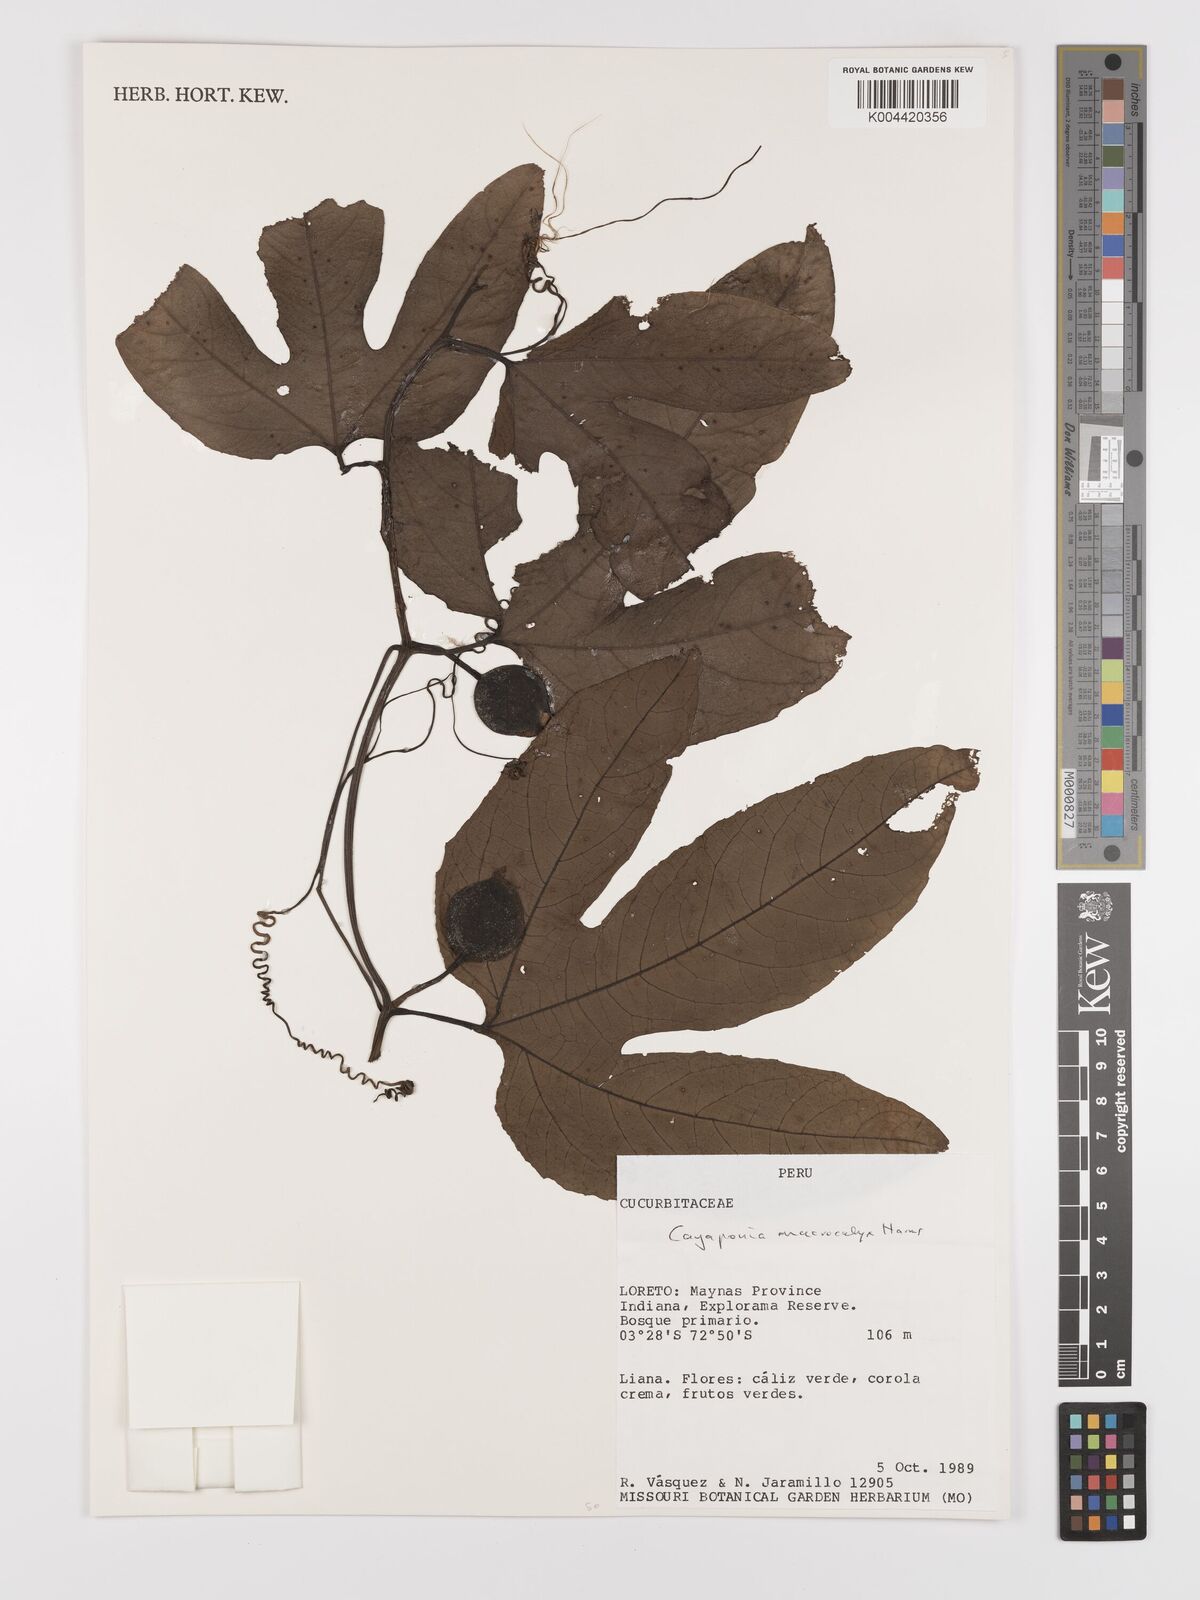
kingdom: Plantae
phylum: Tracheophyta
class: Magnoliopsida
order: Cucurbitales
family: Cucurbitaceae
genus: Cayaponia
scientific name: Cayaponia macrocalyx
